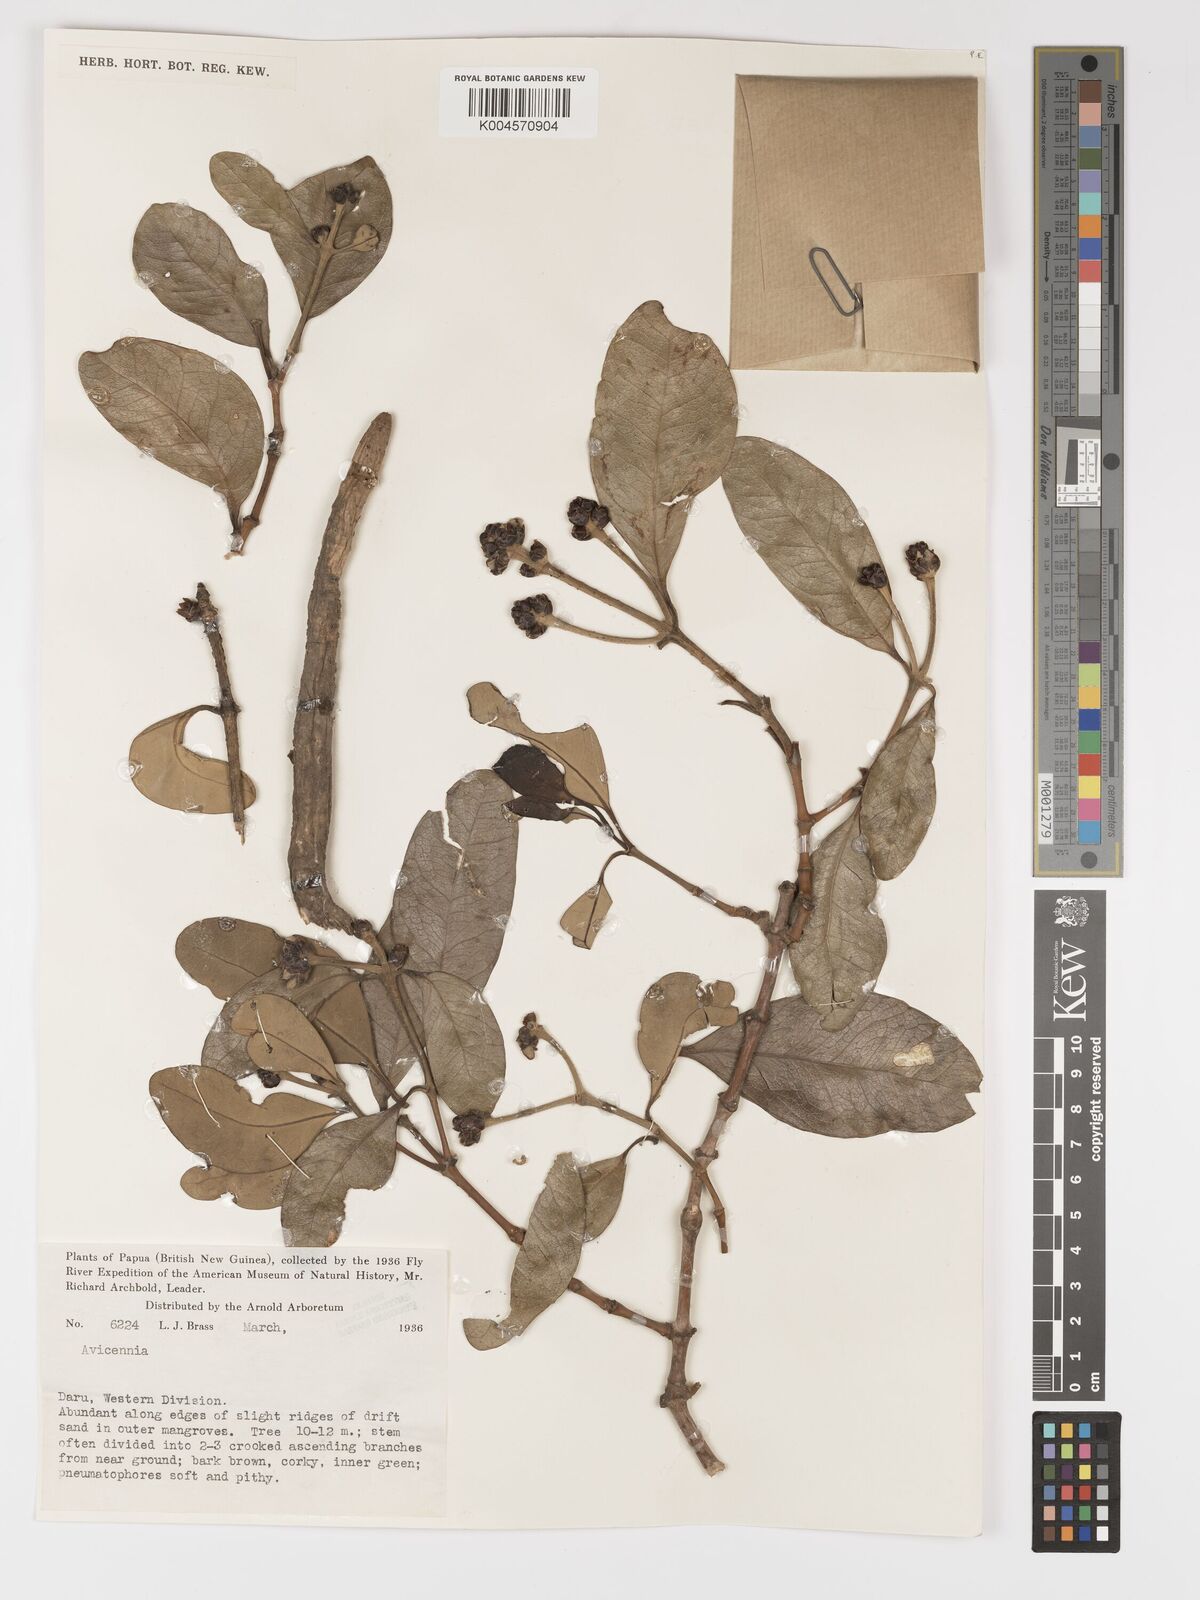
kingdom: Plantae
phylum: Tracheophyta
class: Magnoliopsida
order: Lamiales
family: Acanthaceae
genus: Avicennia
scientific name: Avicennia officinalis
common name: Baen
